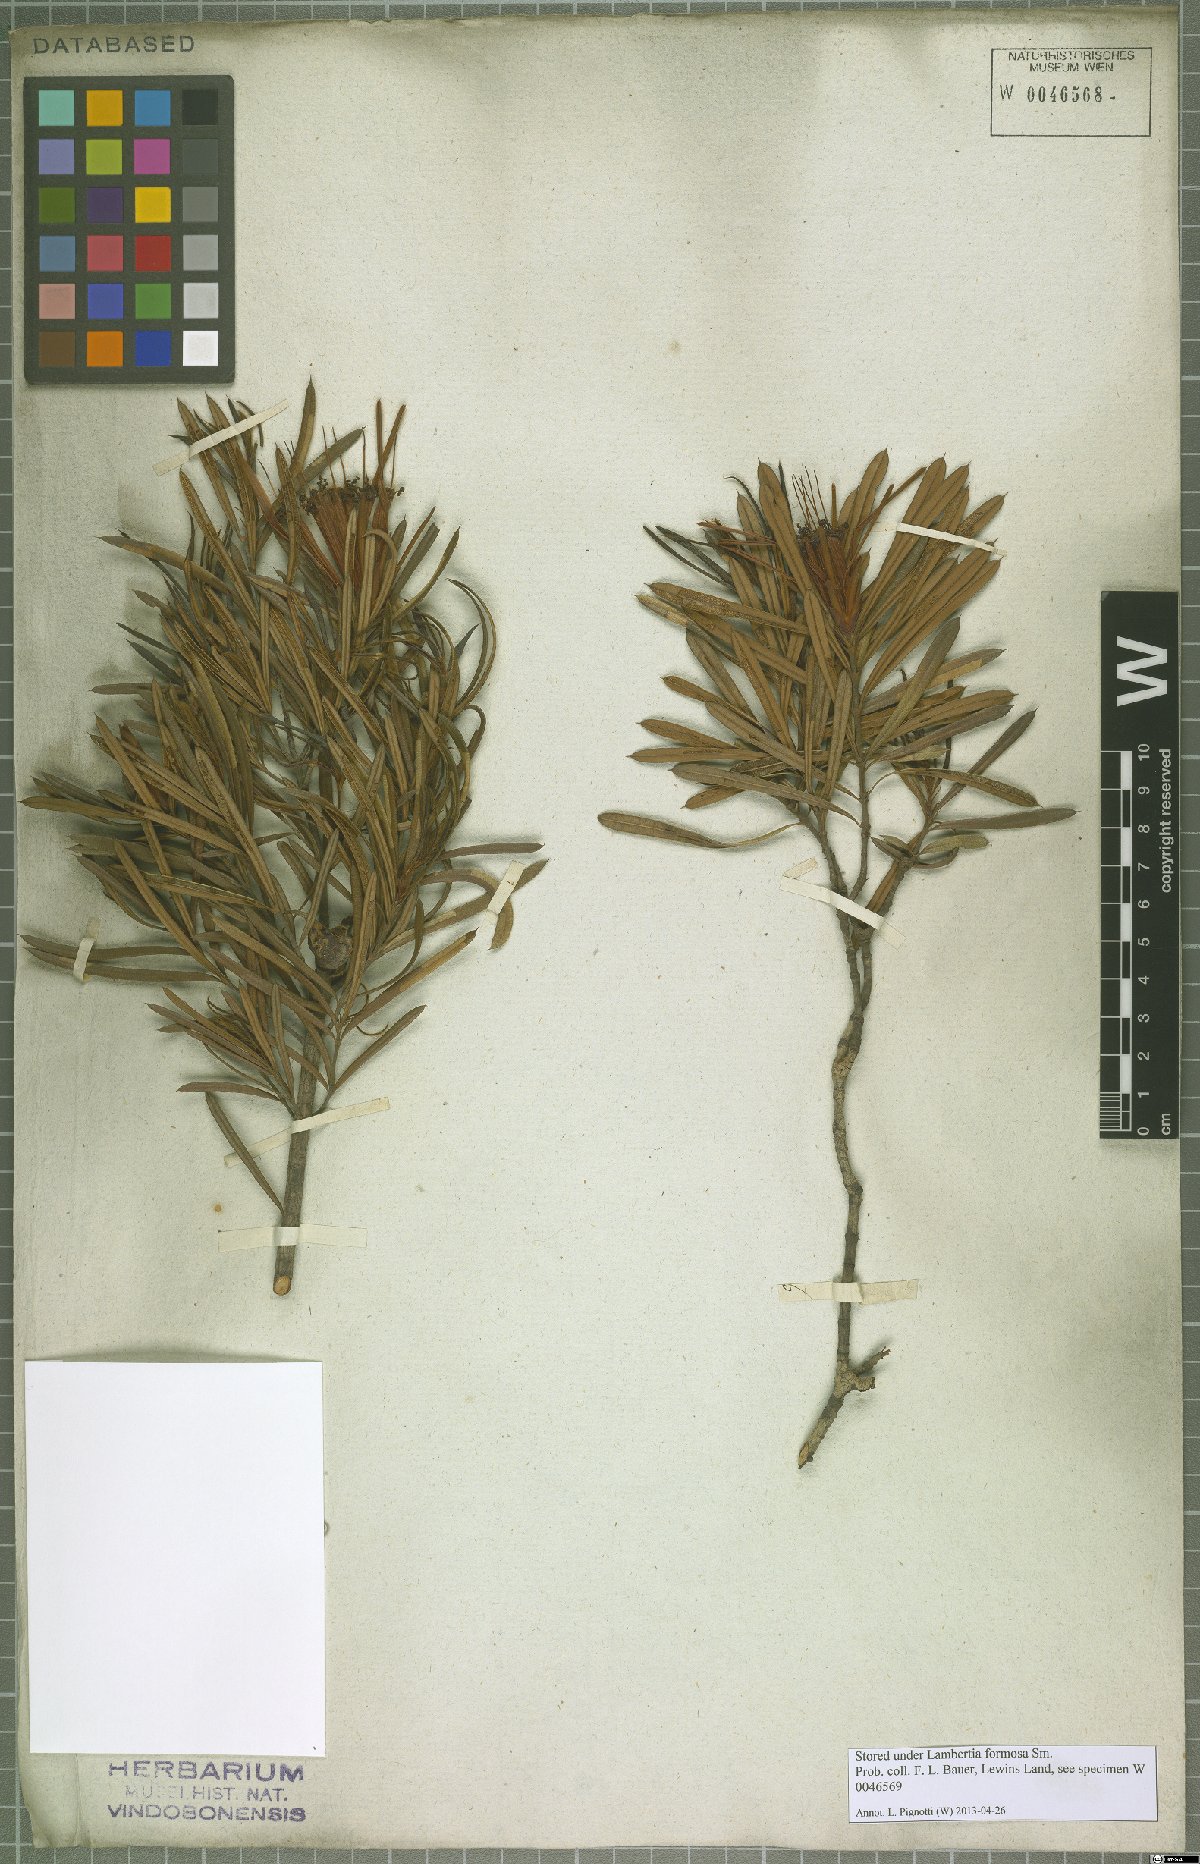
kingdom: Plantae
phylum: Tracheophyta
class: Magnoliopsida
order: Proteales
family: Proteaceae
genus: Lambertia
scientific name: Lambertia formosa
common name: Mountain-devil
